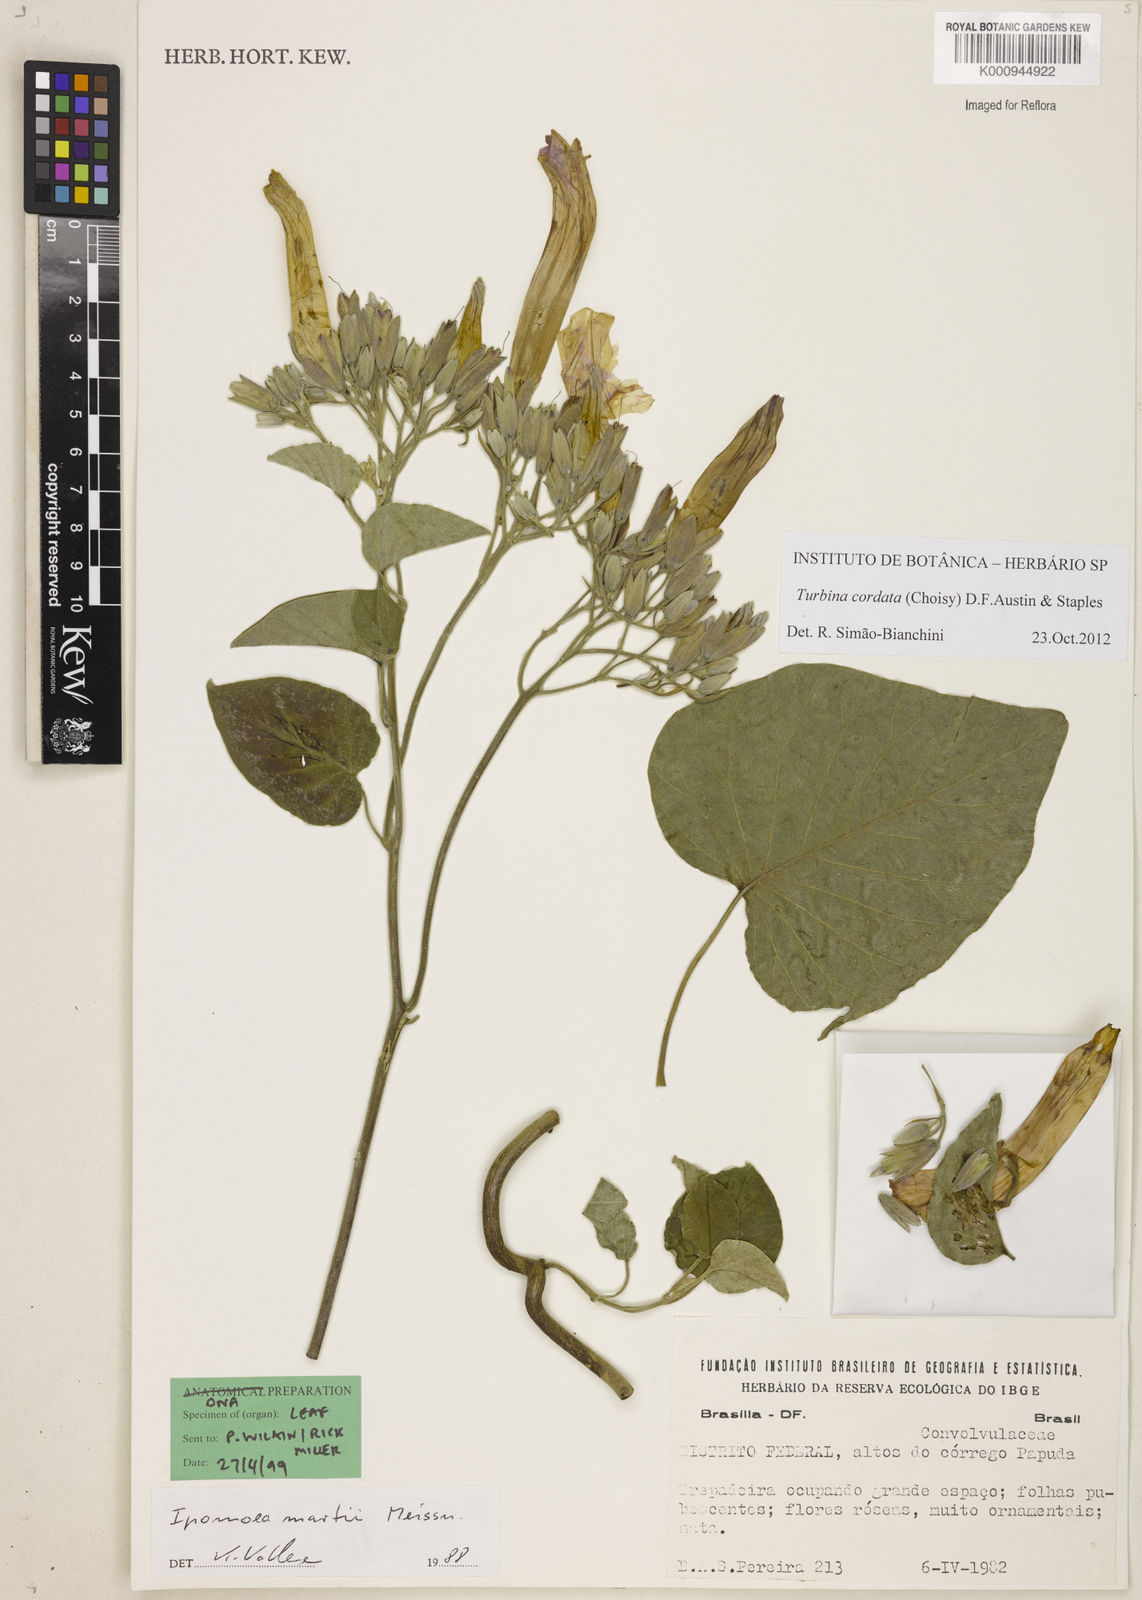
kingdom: Animalia
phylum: Mollusca
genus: Turbina
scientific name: Turbina
